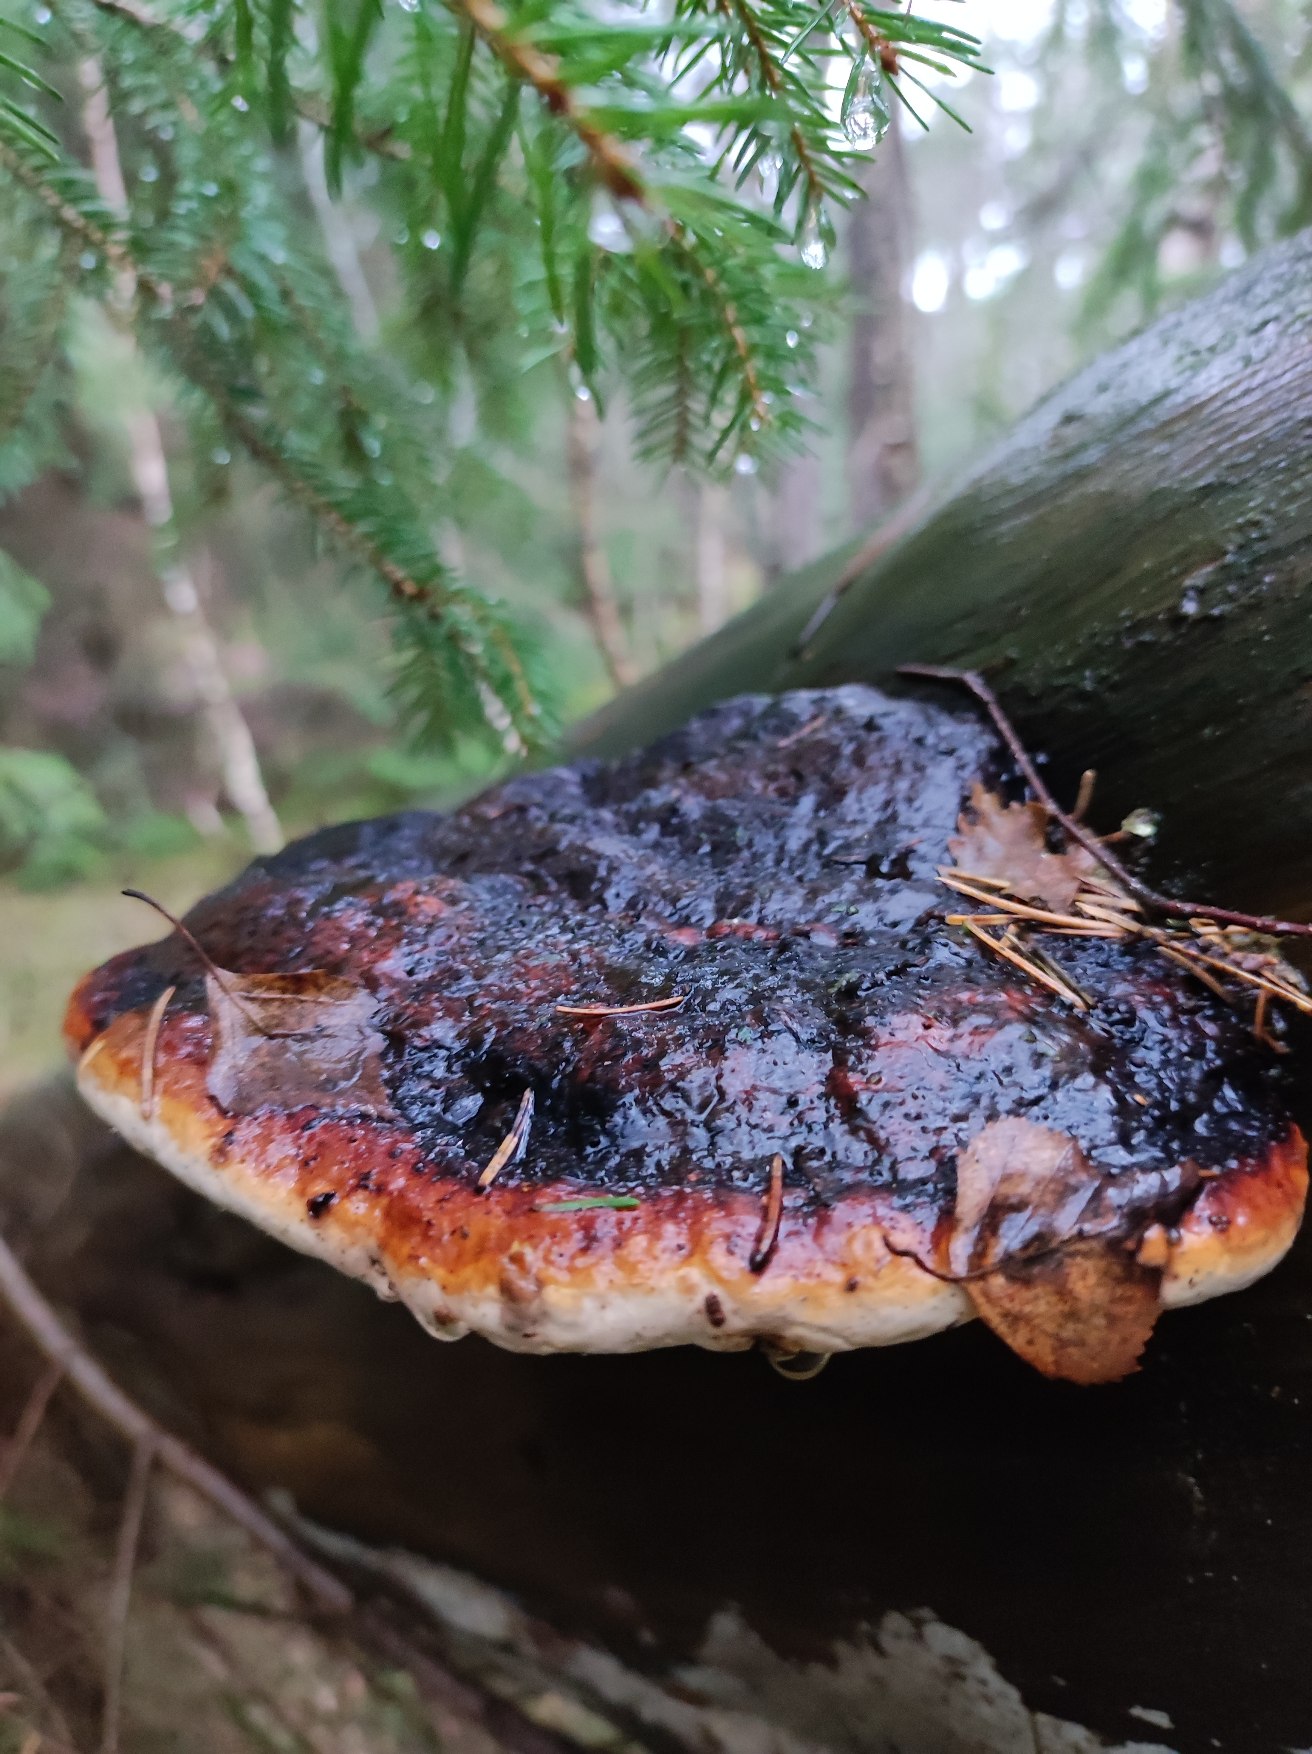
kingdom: Fungi
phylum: Basidiomycota
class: Agaricomycetes
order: Polyporales
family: Fomitopsidaceae
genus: Fomitopsis
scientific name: Fomitopsis pinicola
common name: Randbæltet hovporesvamp
